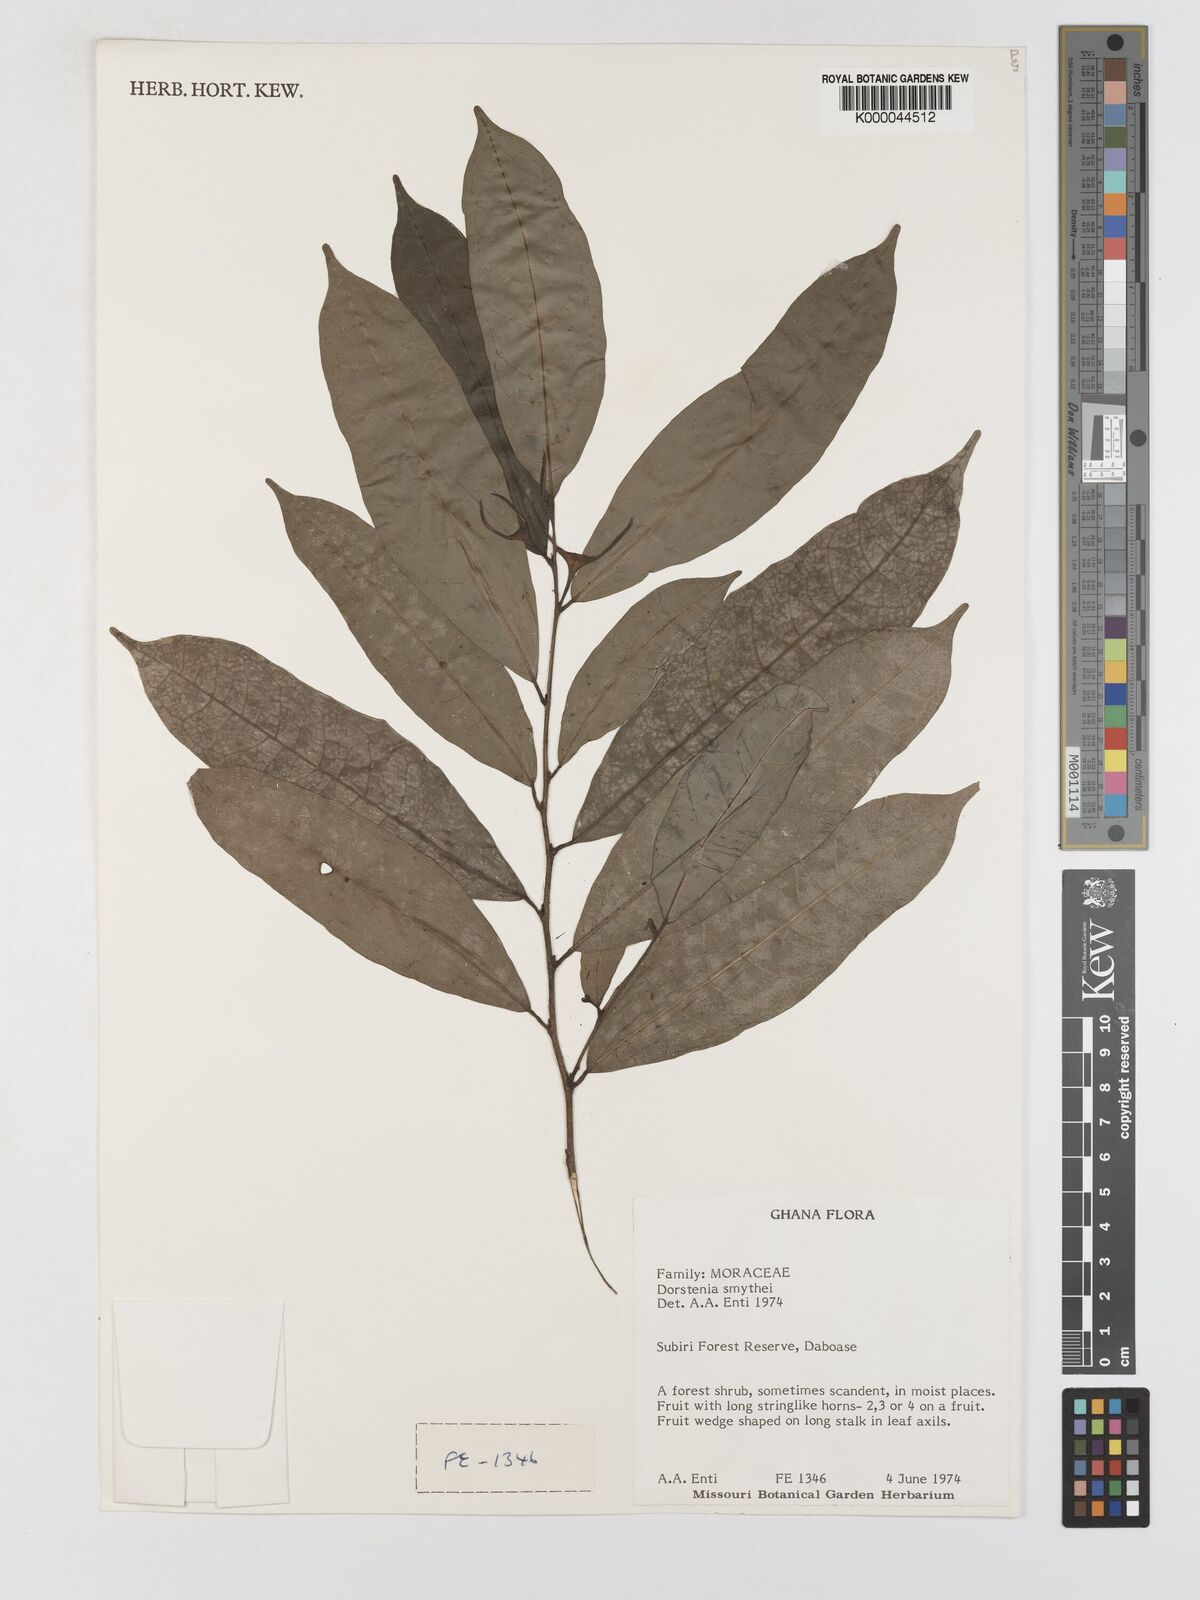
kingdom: Plantae
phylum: Tracheophyta
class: Magnoliopsida
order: Rosales
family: Moraceae
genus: Hijmania
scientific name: Hijmania turbinata
